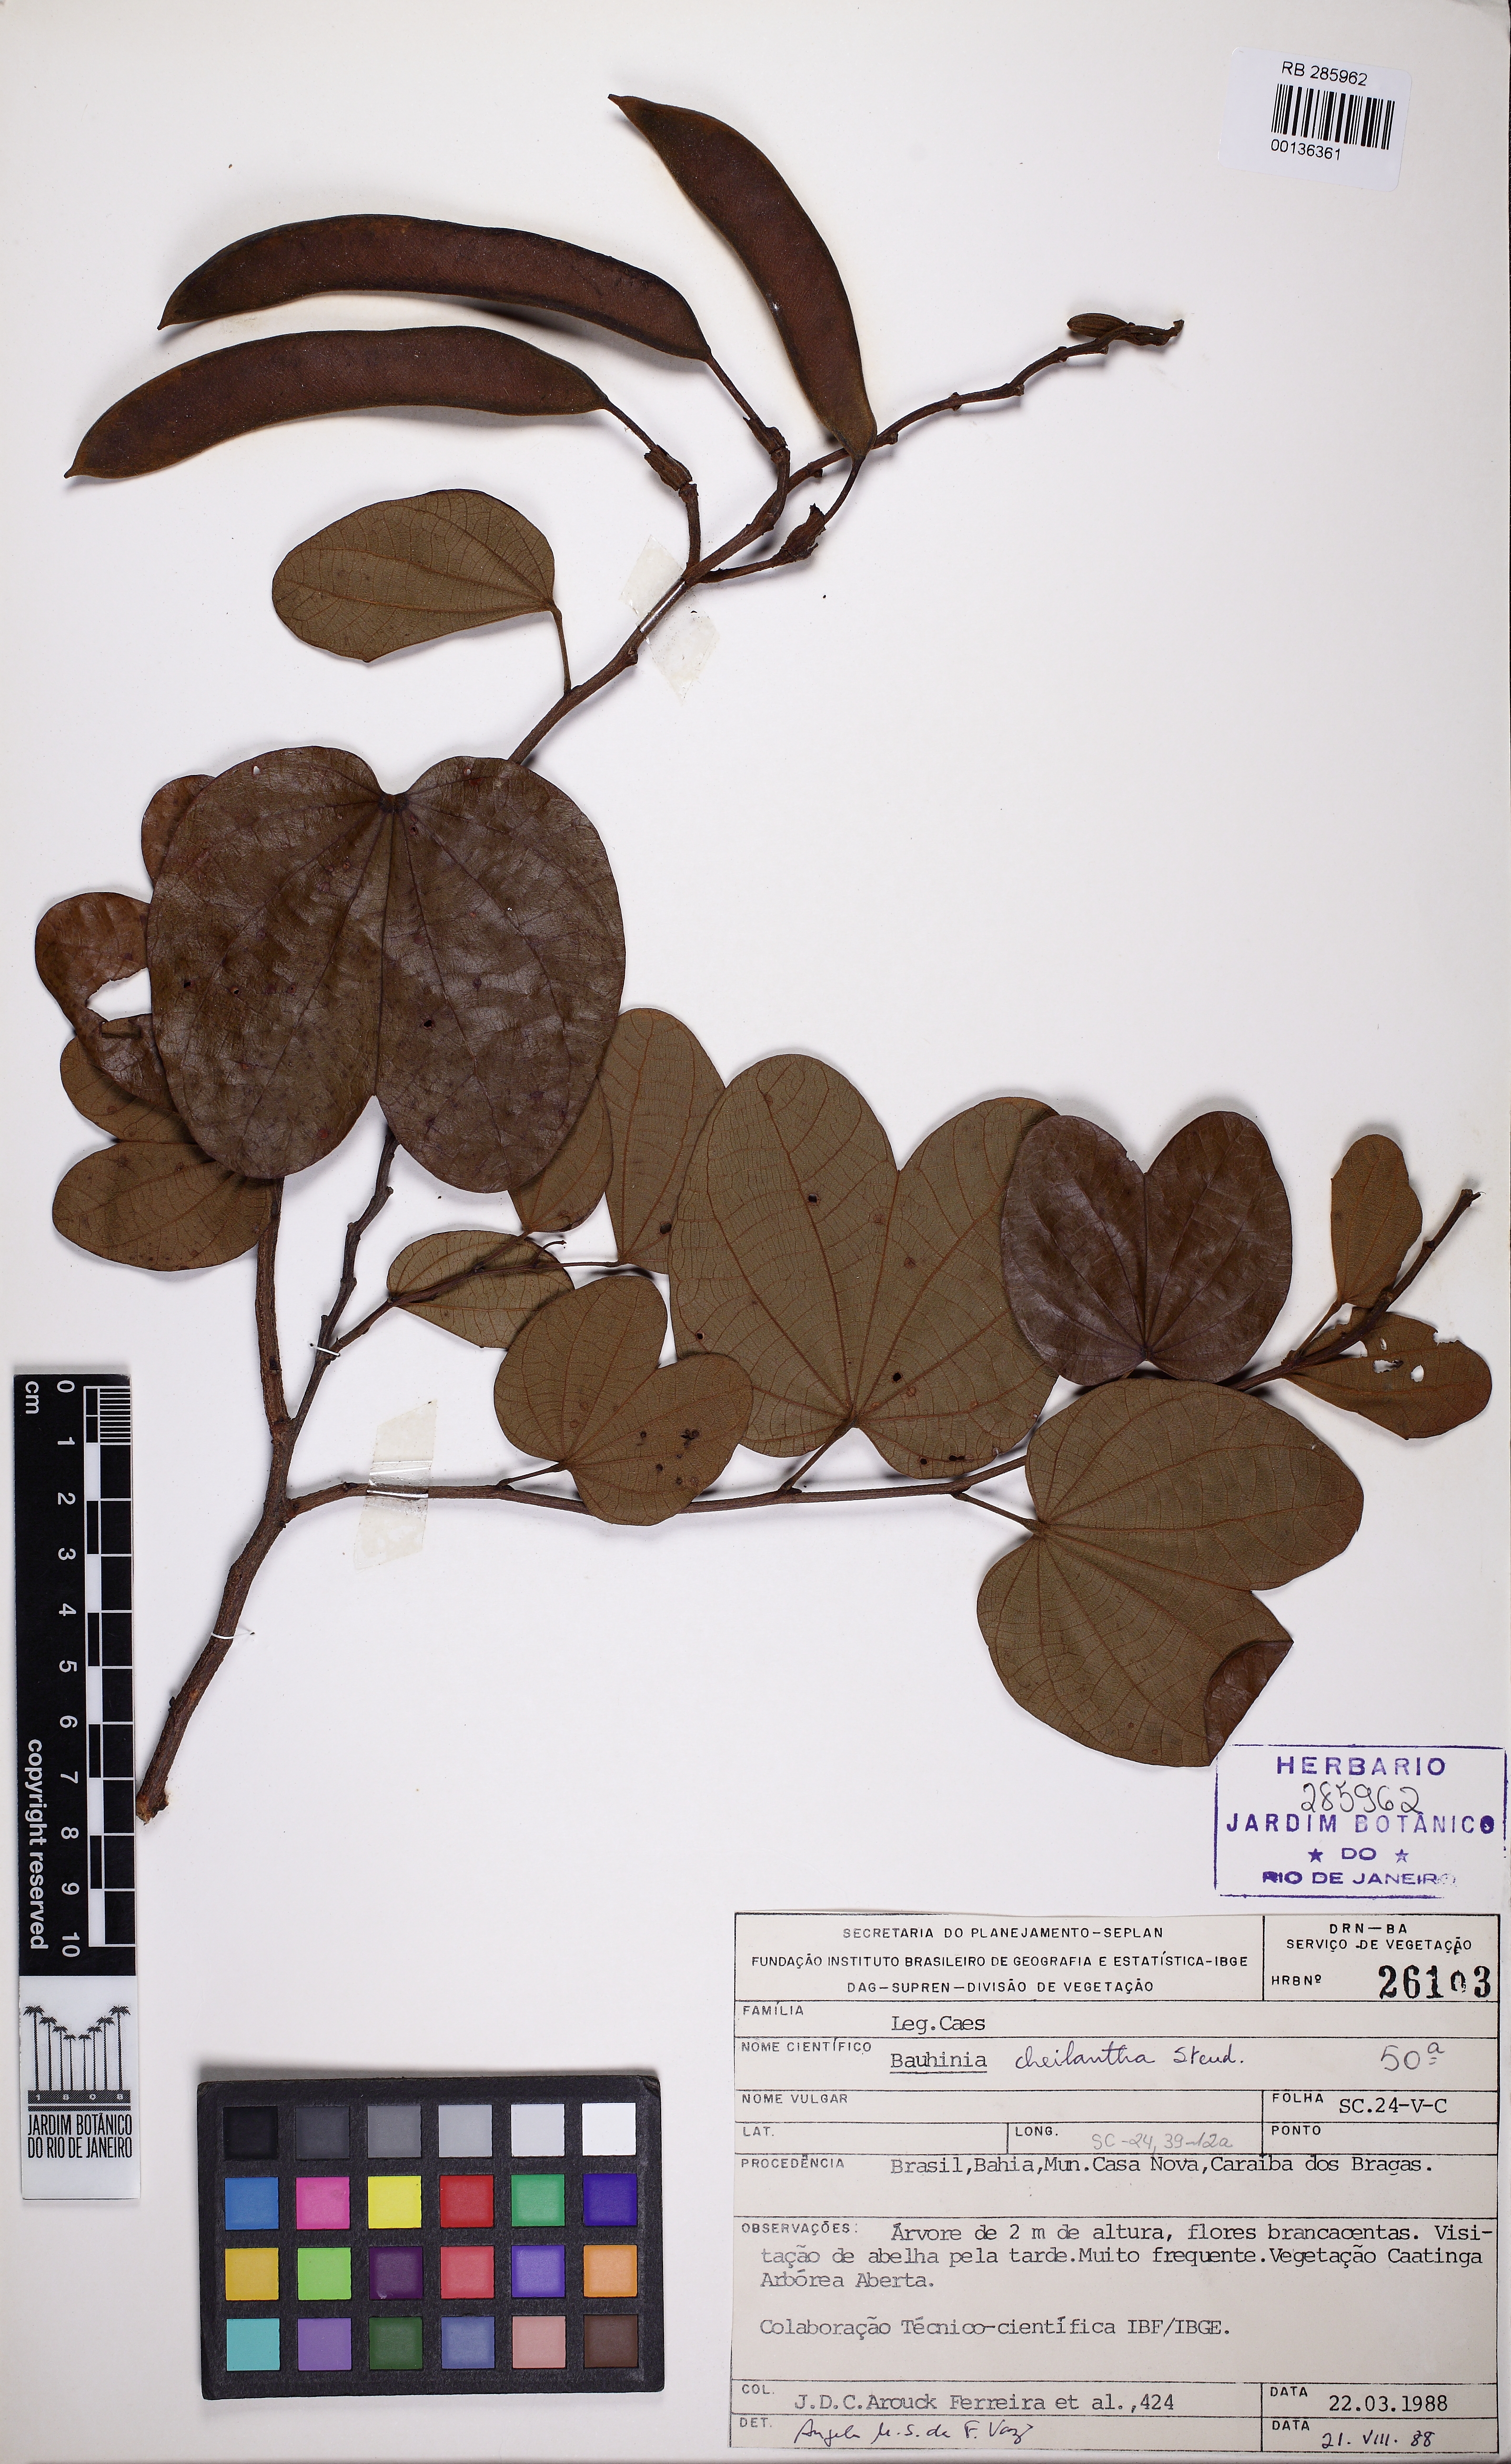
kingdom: Plantae
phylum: Tracheophyta
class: Magnoliopsida
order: Fabales
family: Fabaceae
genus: Bauhinia
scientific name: Bauhinia cheilantha
